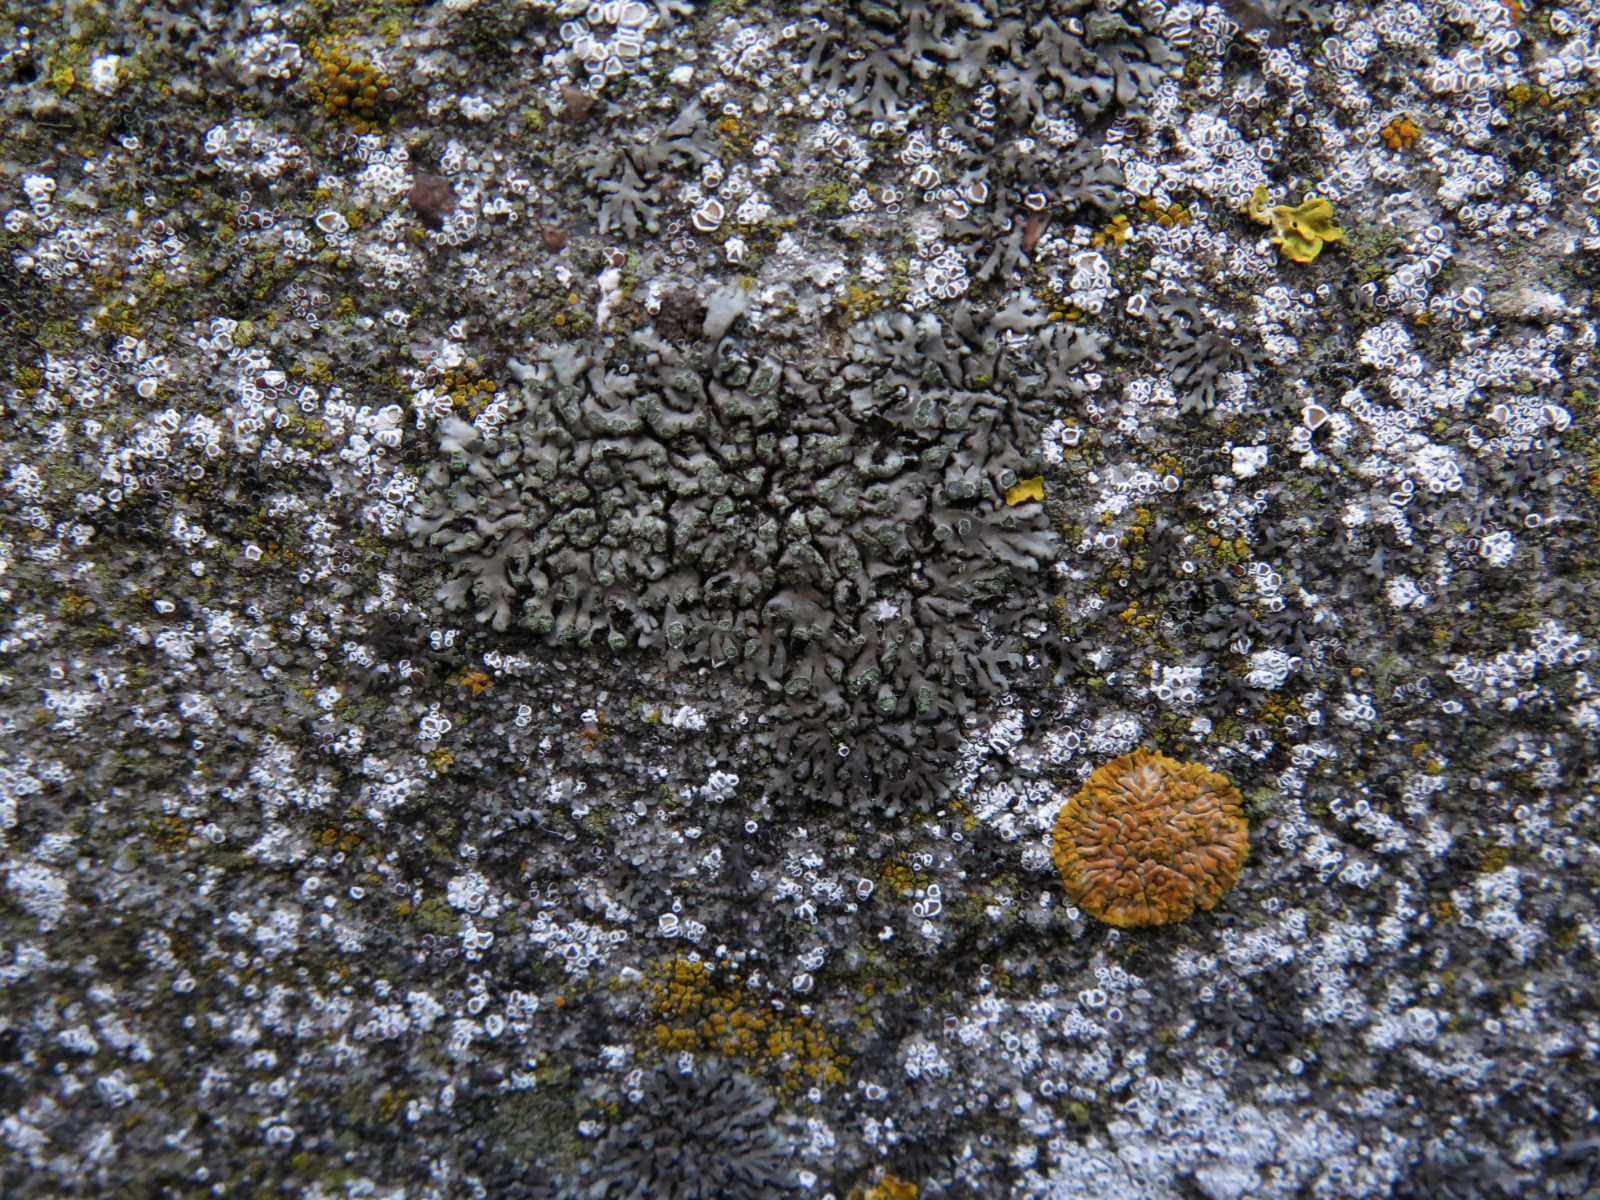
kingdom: Fungi
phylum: Ascomycota
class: Lecanoromycetes
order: Caliciales
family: Physciaceae
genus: Phaeophyscia
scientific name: Phaeophyscia orbicularis
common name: grågrøn rosetlav
